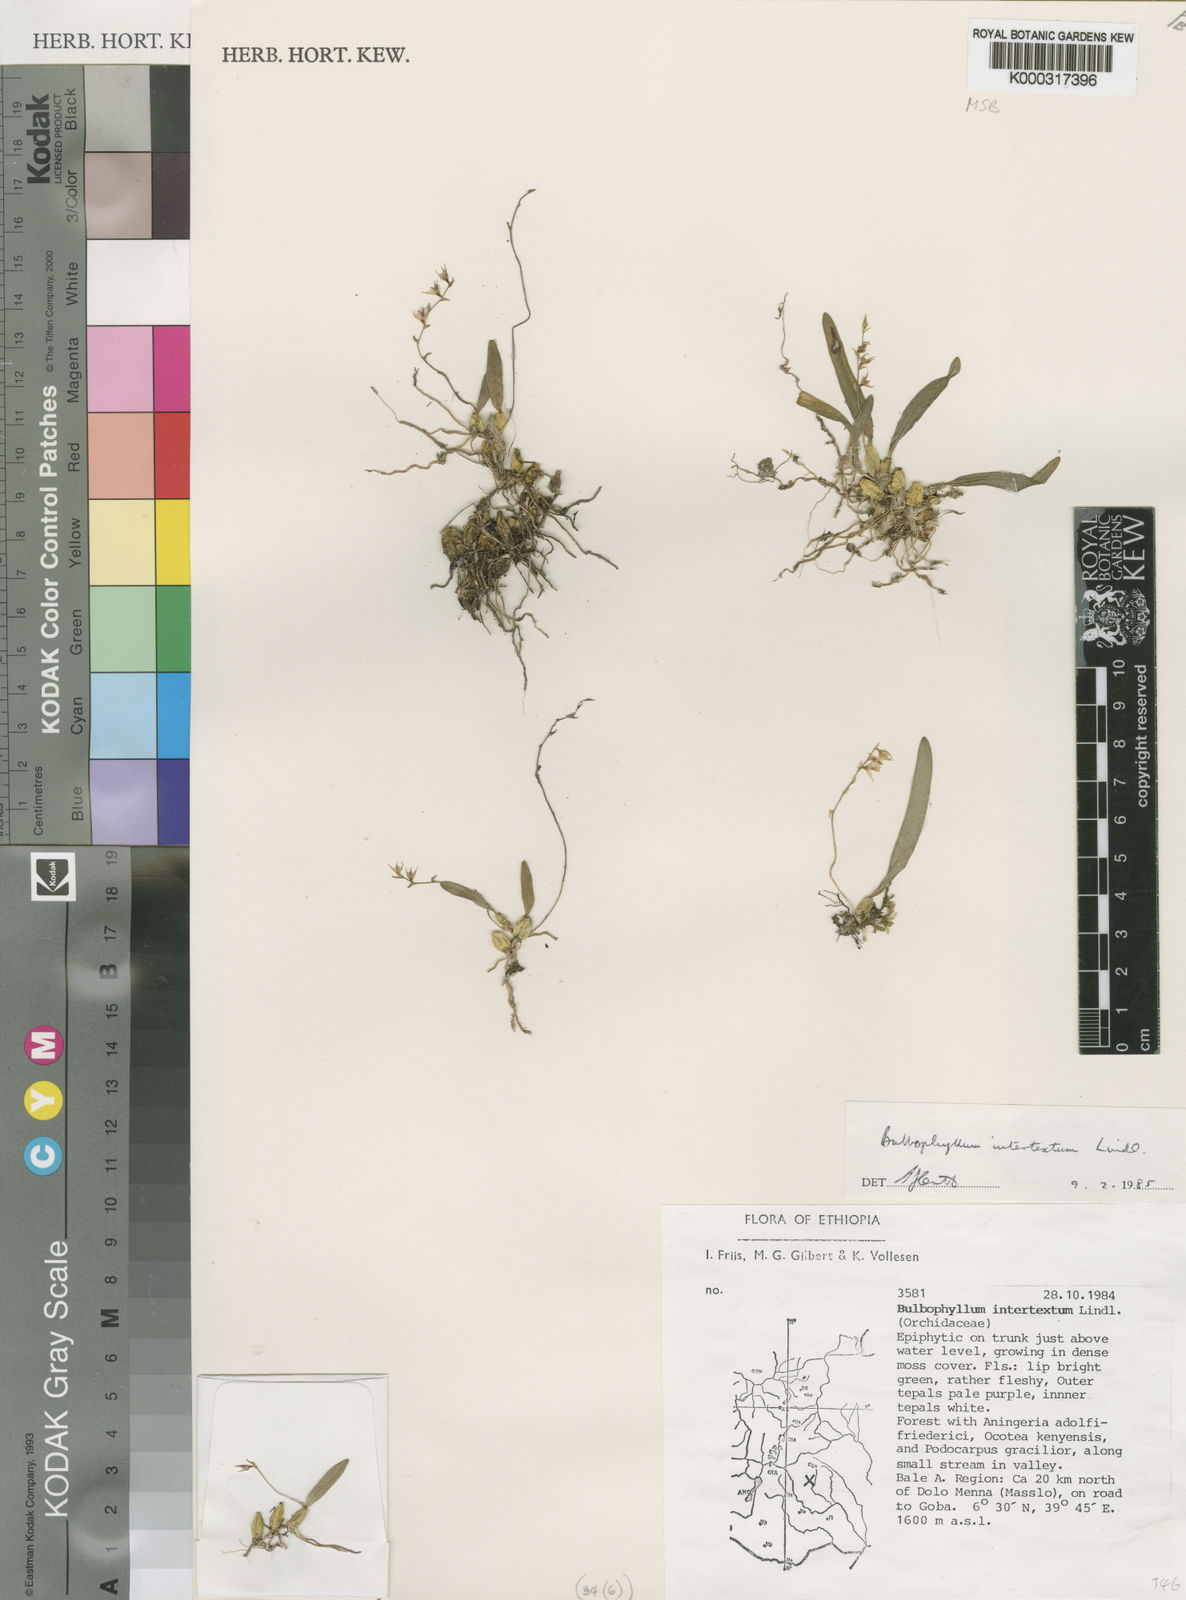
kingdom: Plantae
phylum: Tracheophyta
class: Liliopsida
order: Asparagales
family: Orchidaceae
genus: Bulbophyllum
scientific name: Bulbophyllum intertextum
